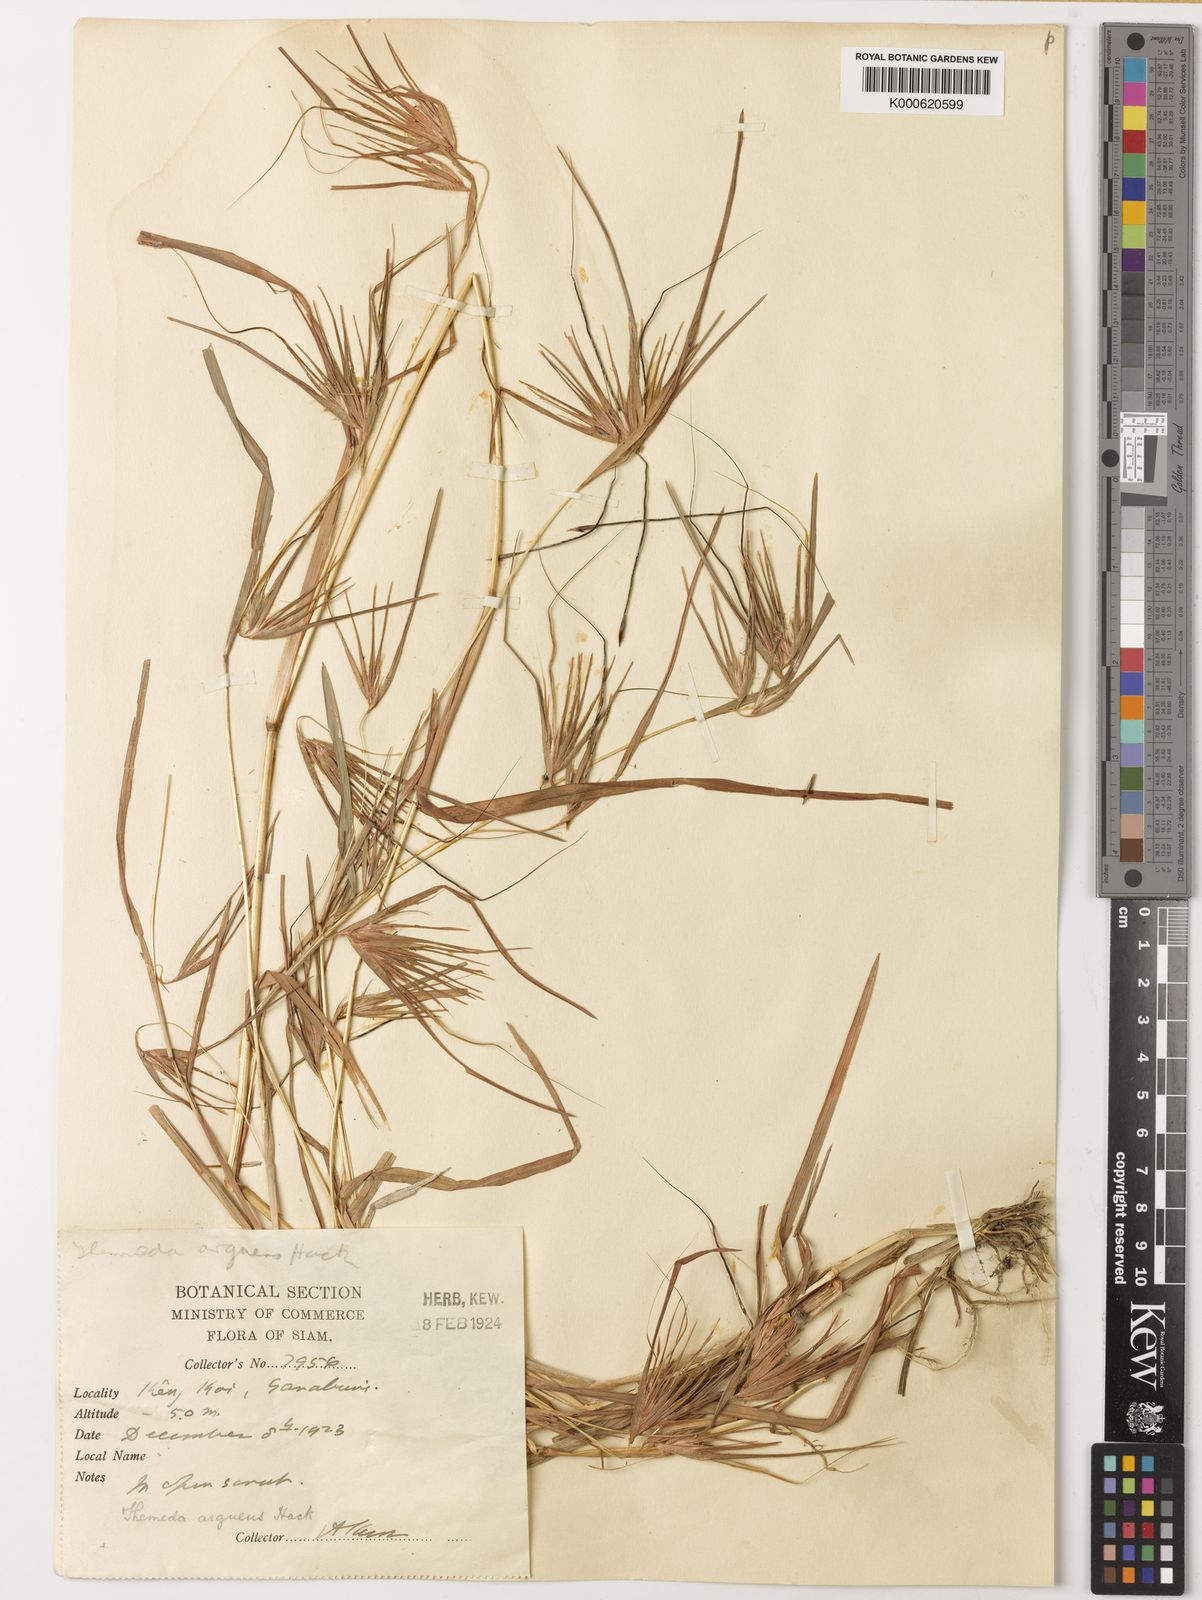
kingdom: Plantae
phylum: Tracheophyta
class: Liliopsida
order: Poales
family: Poaceae
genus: Themeda
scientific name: Themeda arguens
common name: Christmas grass
